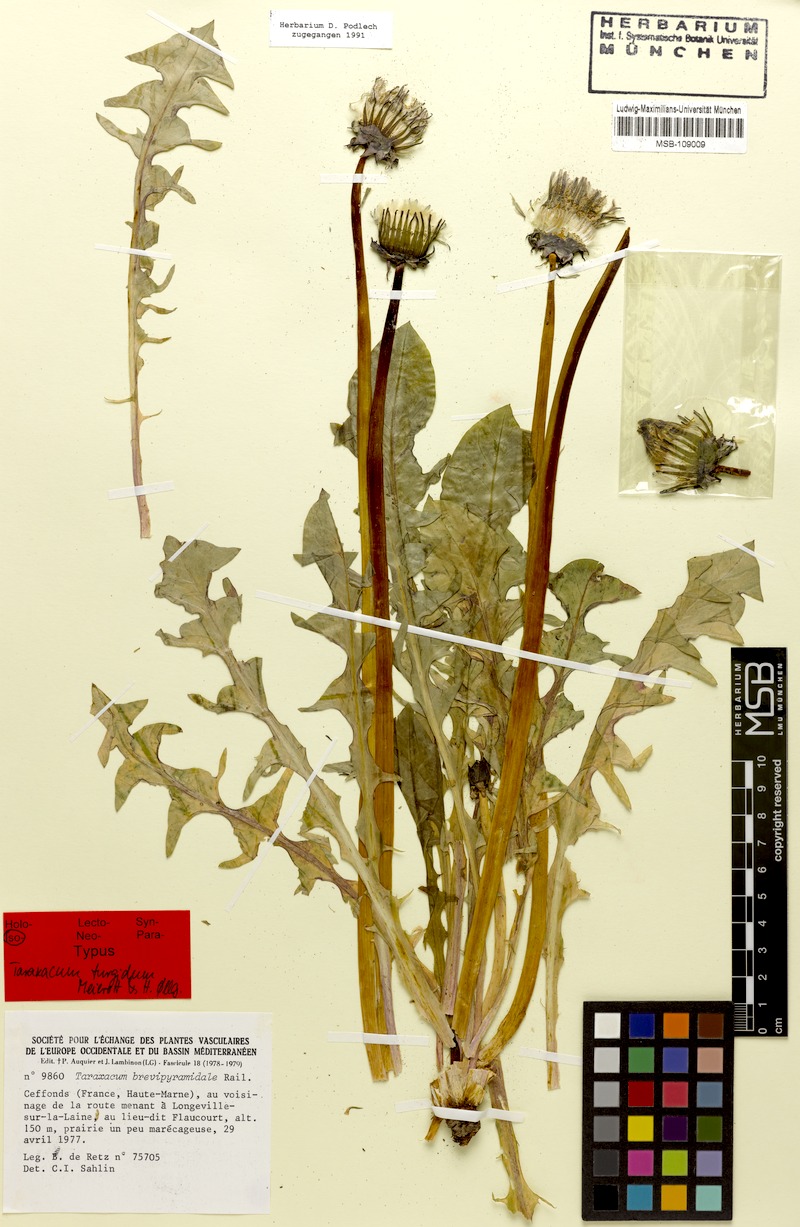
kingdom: Plantae
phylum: Tracheophyta
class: Magnoliopsida
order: Asterales
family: Asteraceae
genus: Taraxacum
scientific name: Taraxacum turgidum
